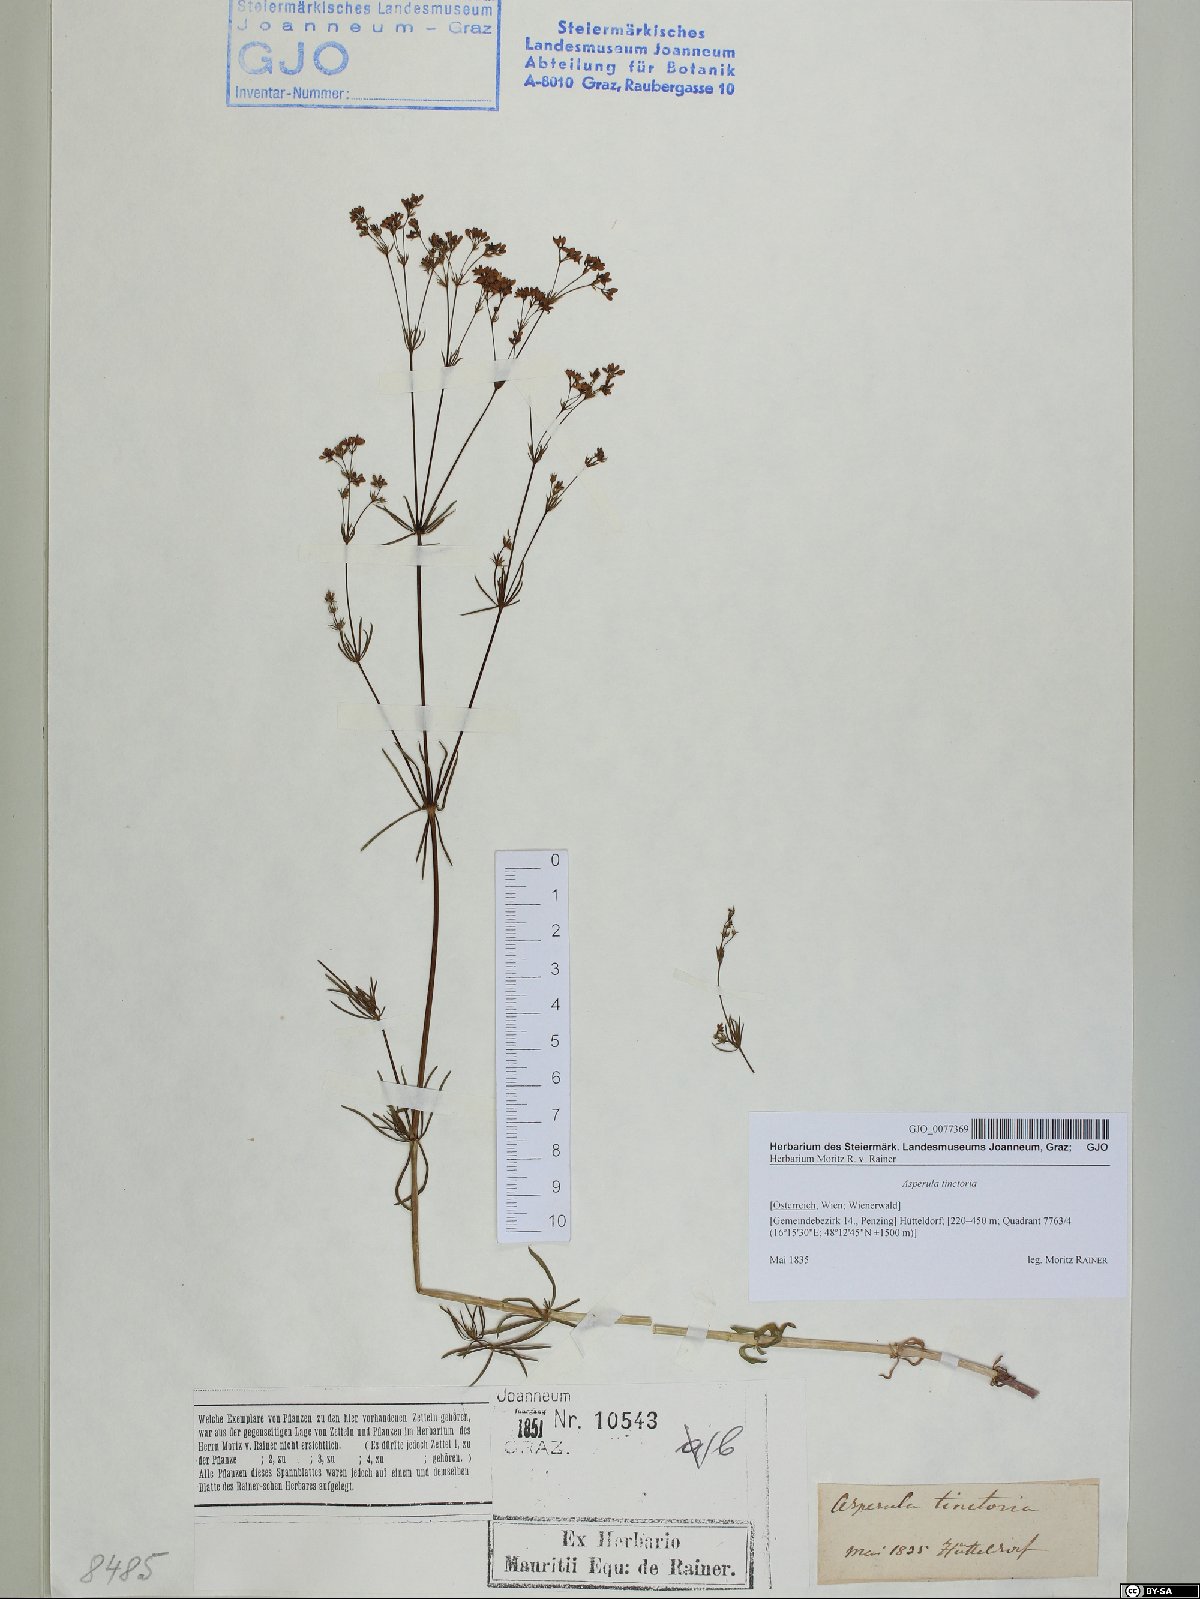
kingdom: Plantae
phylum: Tracheophyta
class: Magnoliopsida
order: Gentianales
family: Rubiaceae
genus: Asperula
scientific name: Asperula tinctoria
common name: Dyer's woodruff
